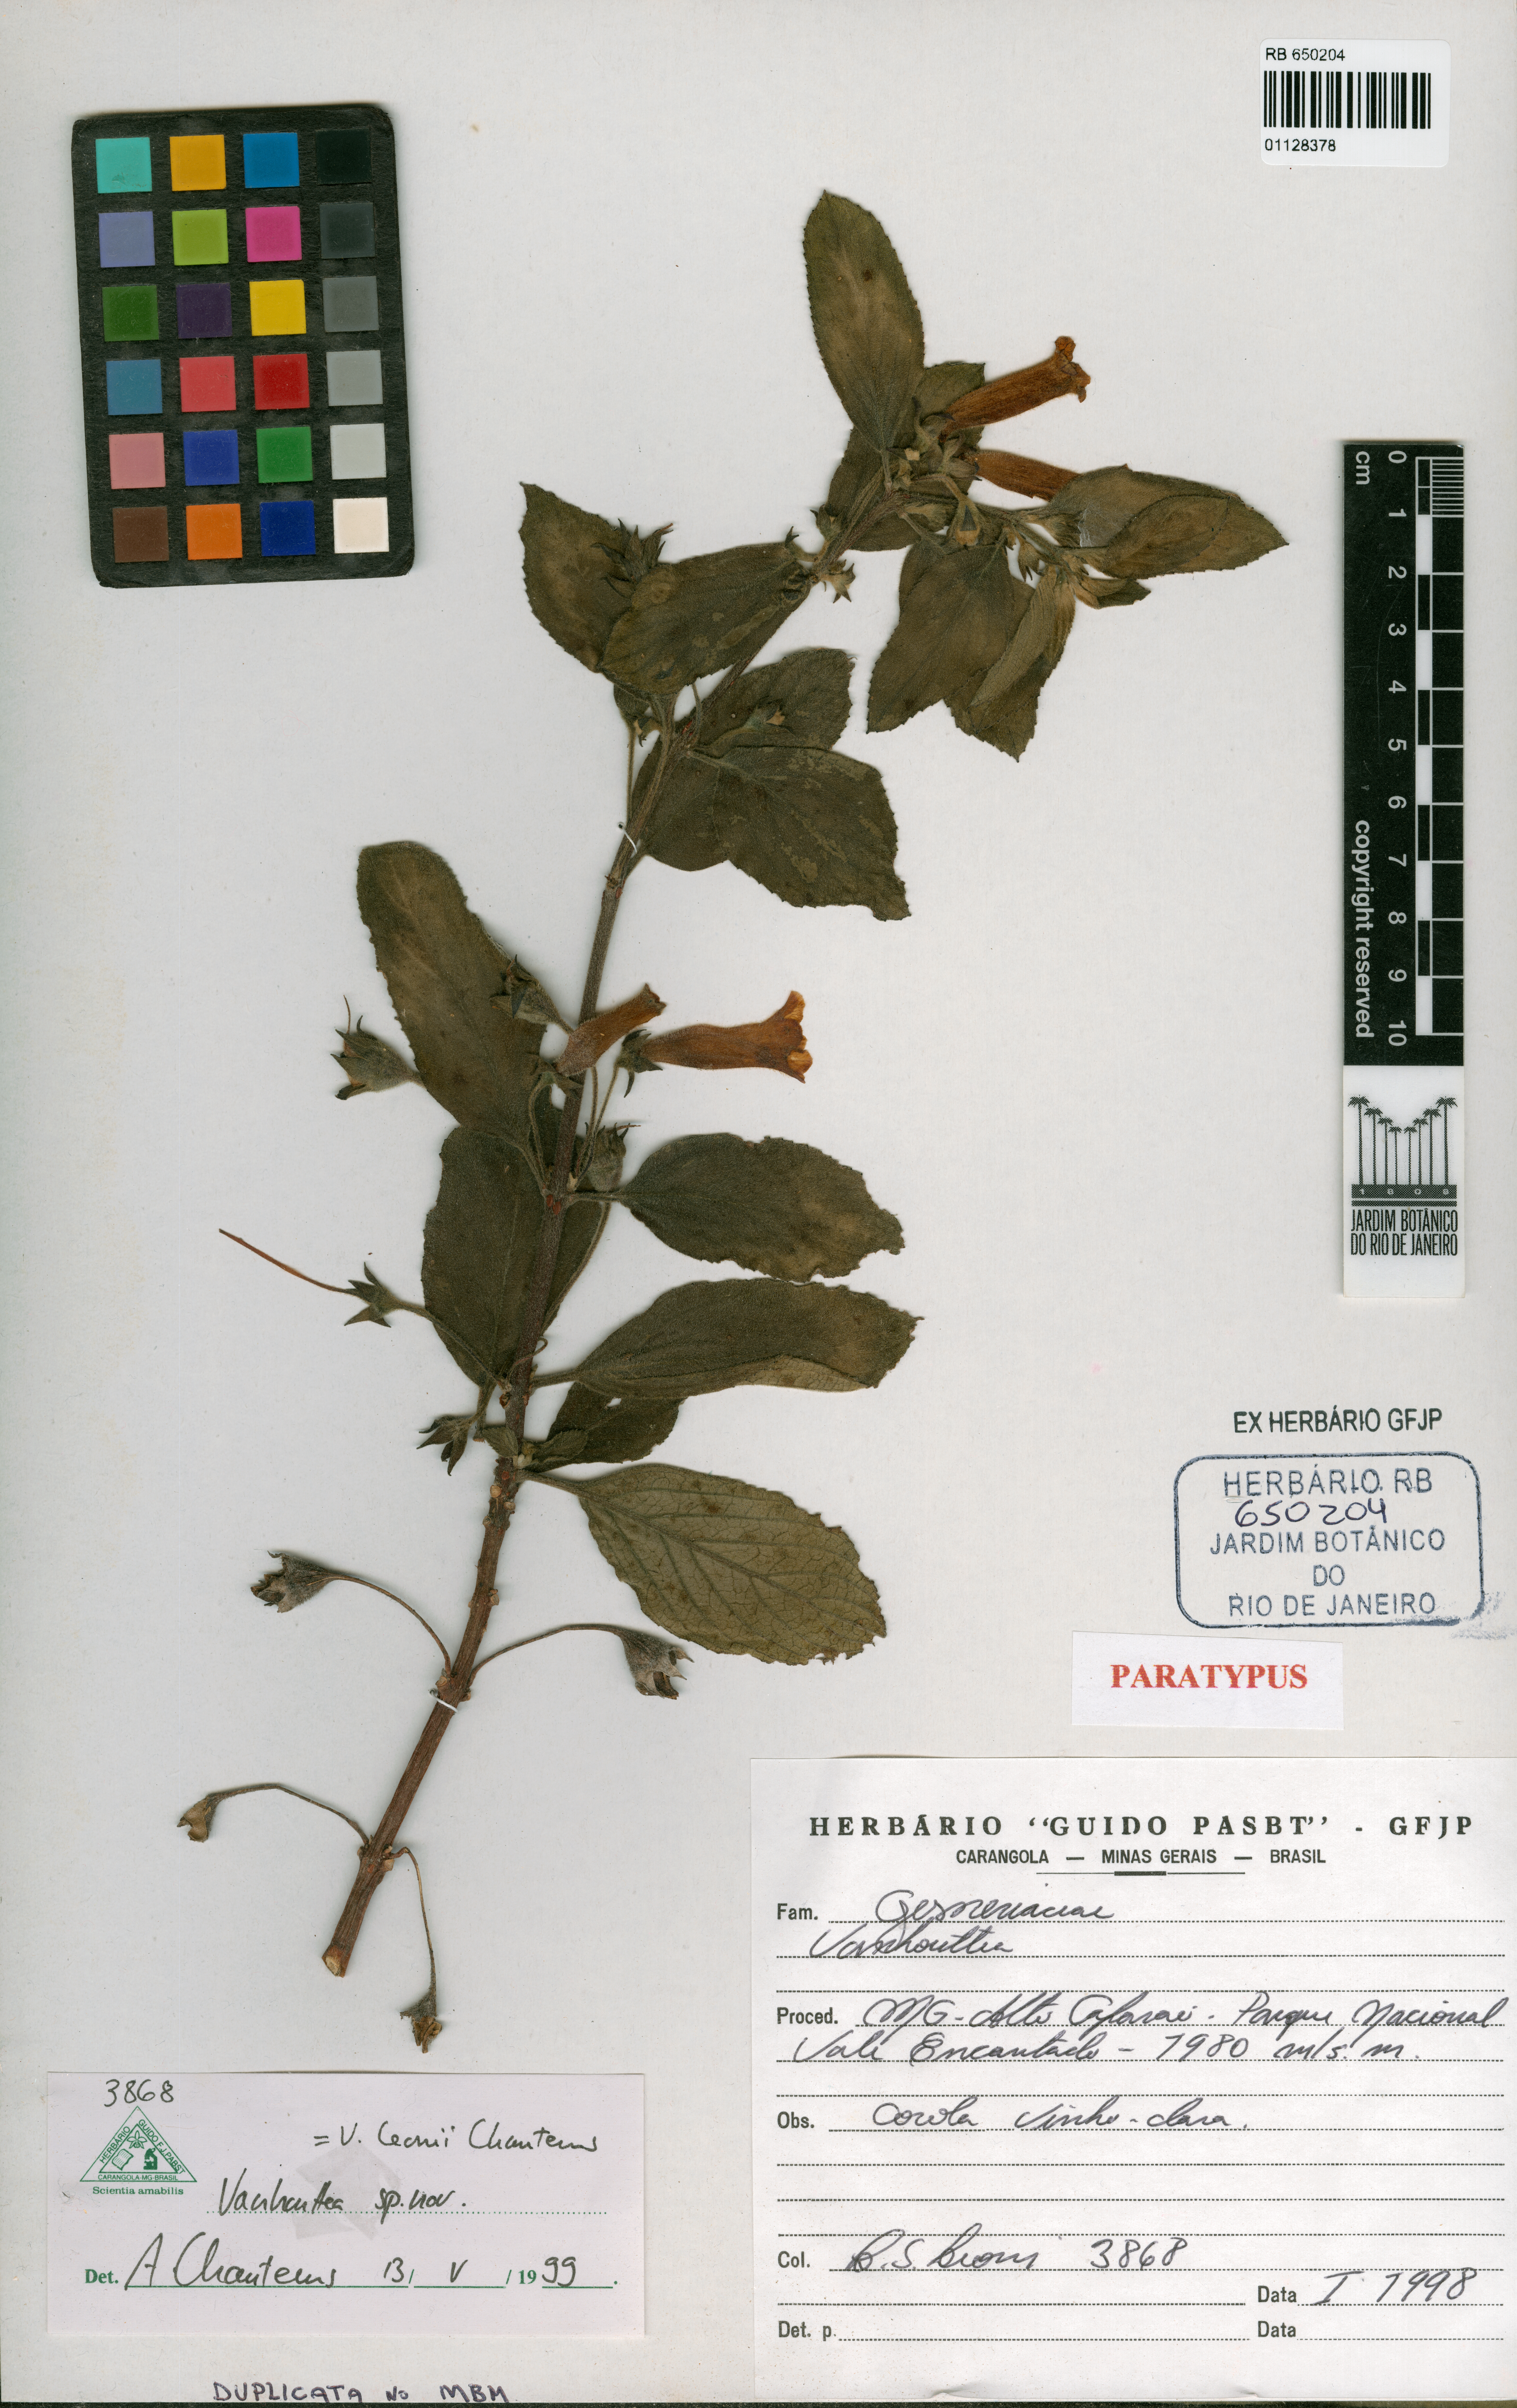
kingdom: Plantae
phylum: Tracheophyta
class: Magnoliopsida
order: Lamiales
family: Gesneriaceae
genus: Vanhouttea
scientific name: Vanhouttea leonii
